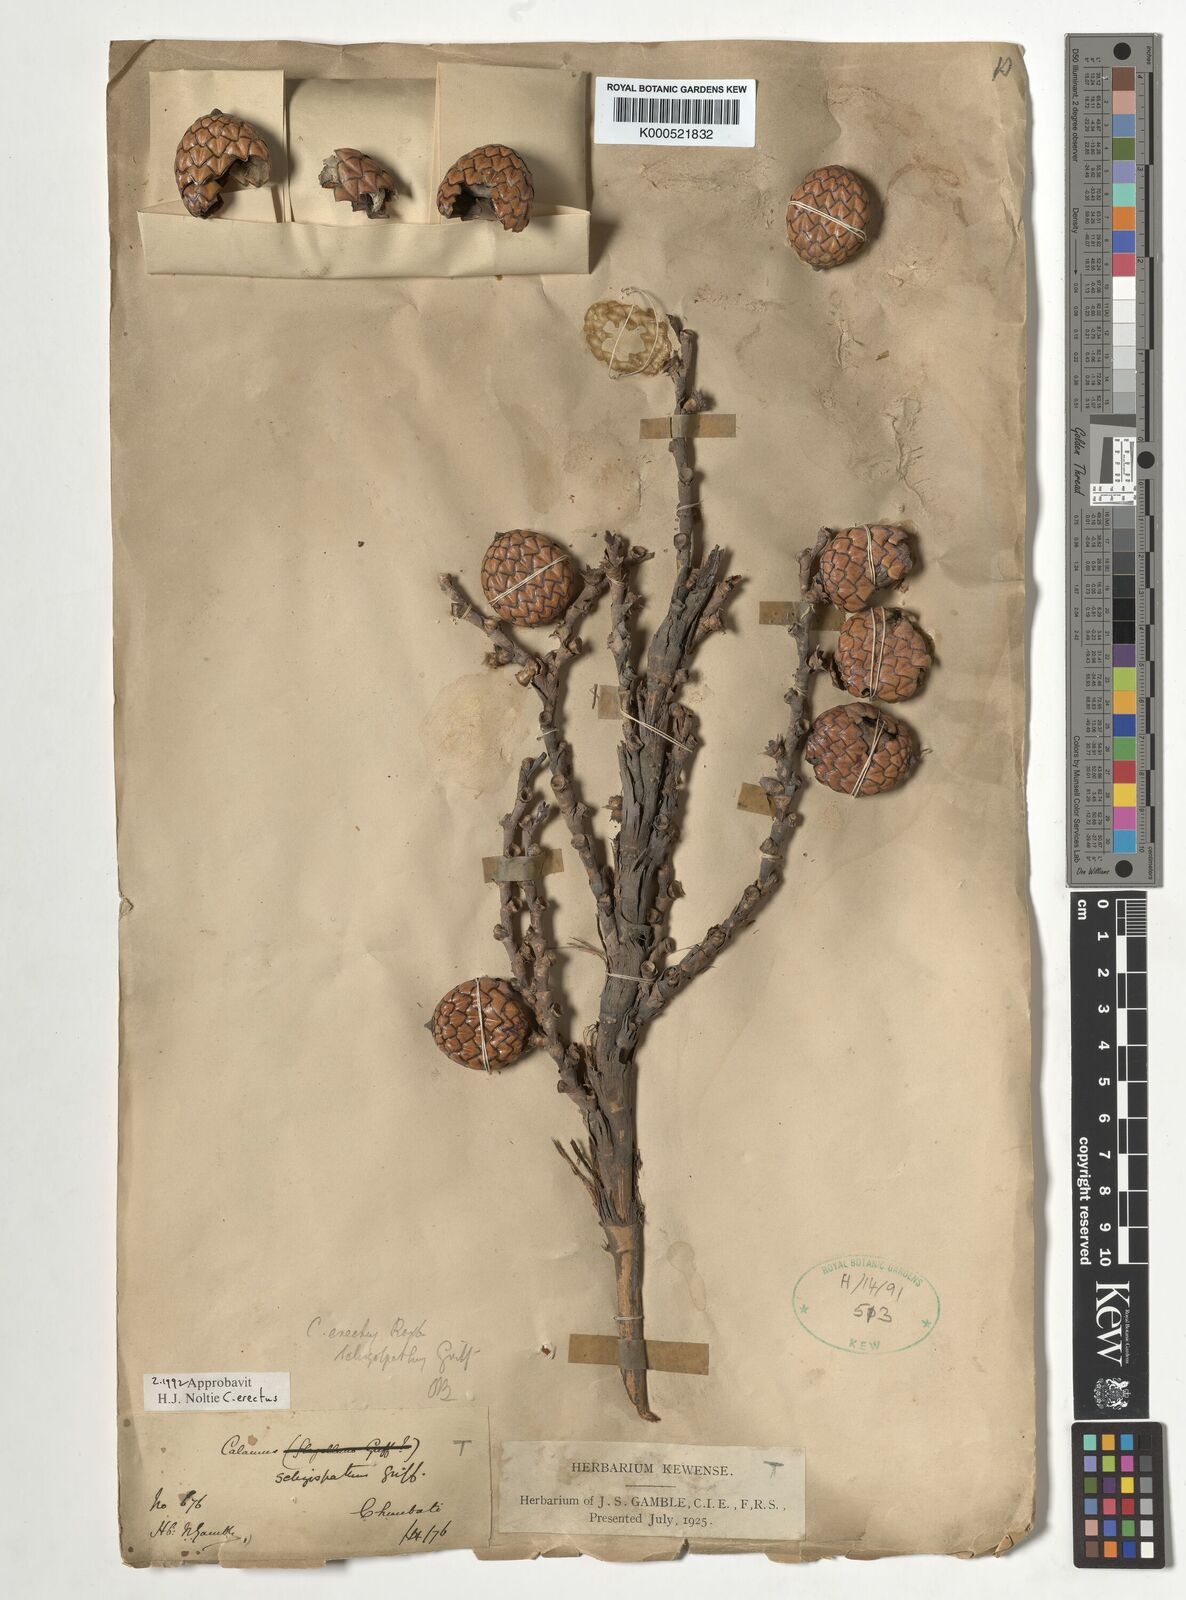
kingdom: Plantae
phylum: Tracheophyta
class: Liliopsida
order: Arecales
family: Arecaceae
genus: Calamus
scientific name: Calamus erectus
